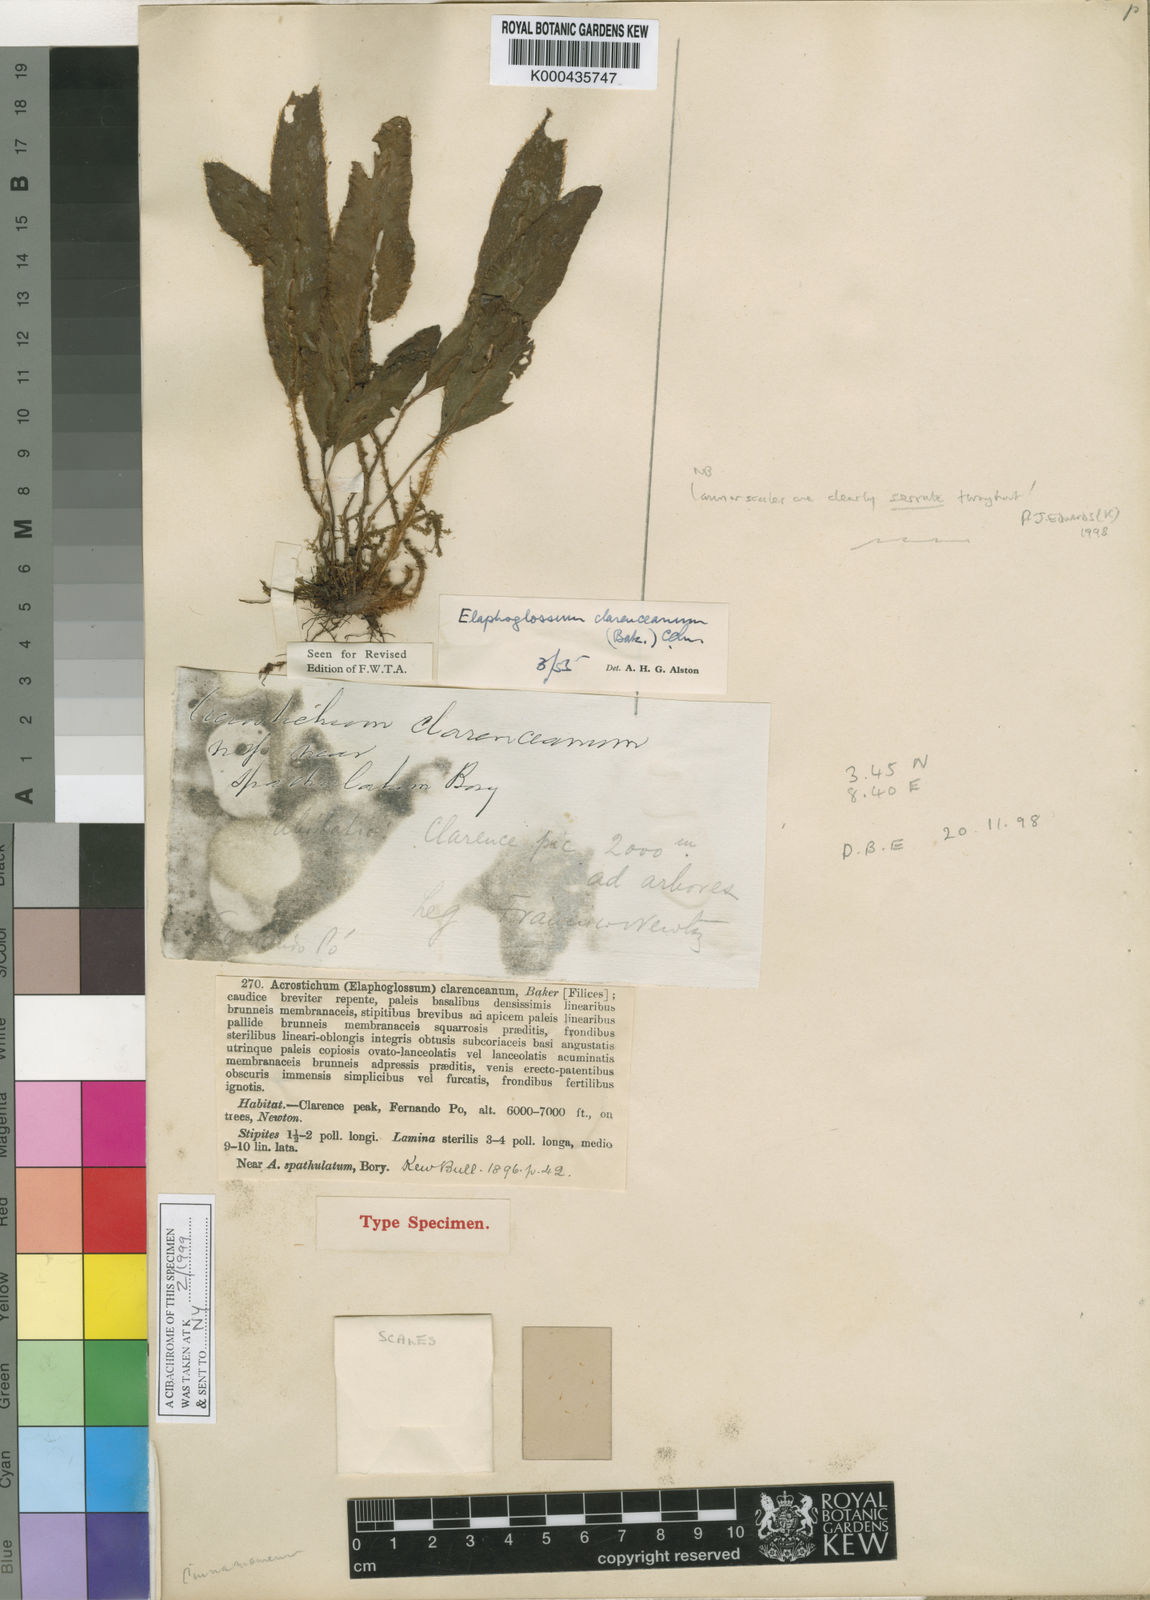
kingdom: Plantae
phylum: Tracheophyta
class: Polypodiopsida
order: Polypodiales
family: Dryopteridaceae
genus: Elaphoglossum
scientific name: Elaphoglossum chevalieri
